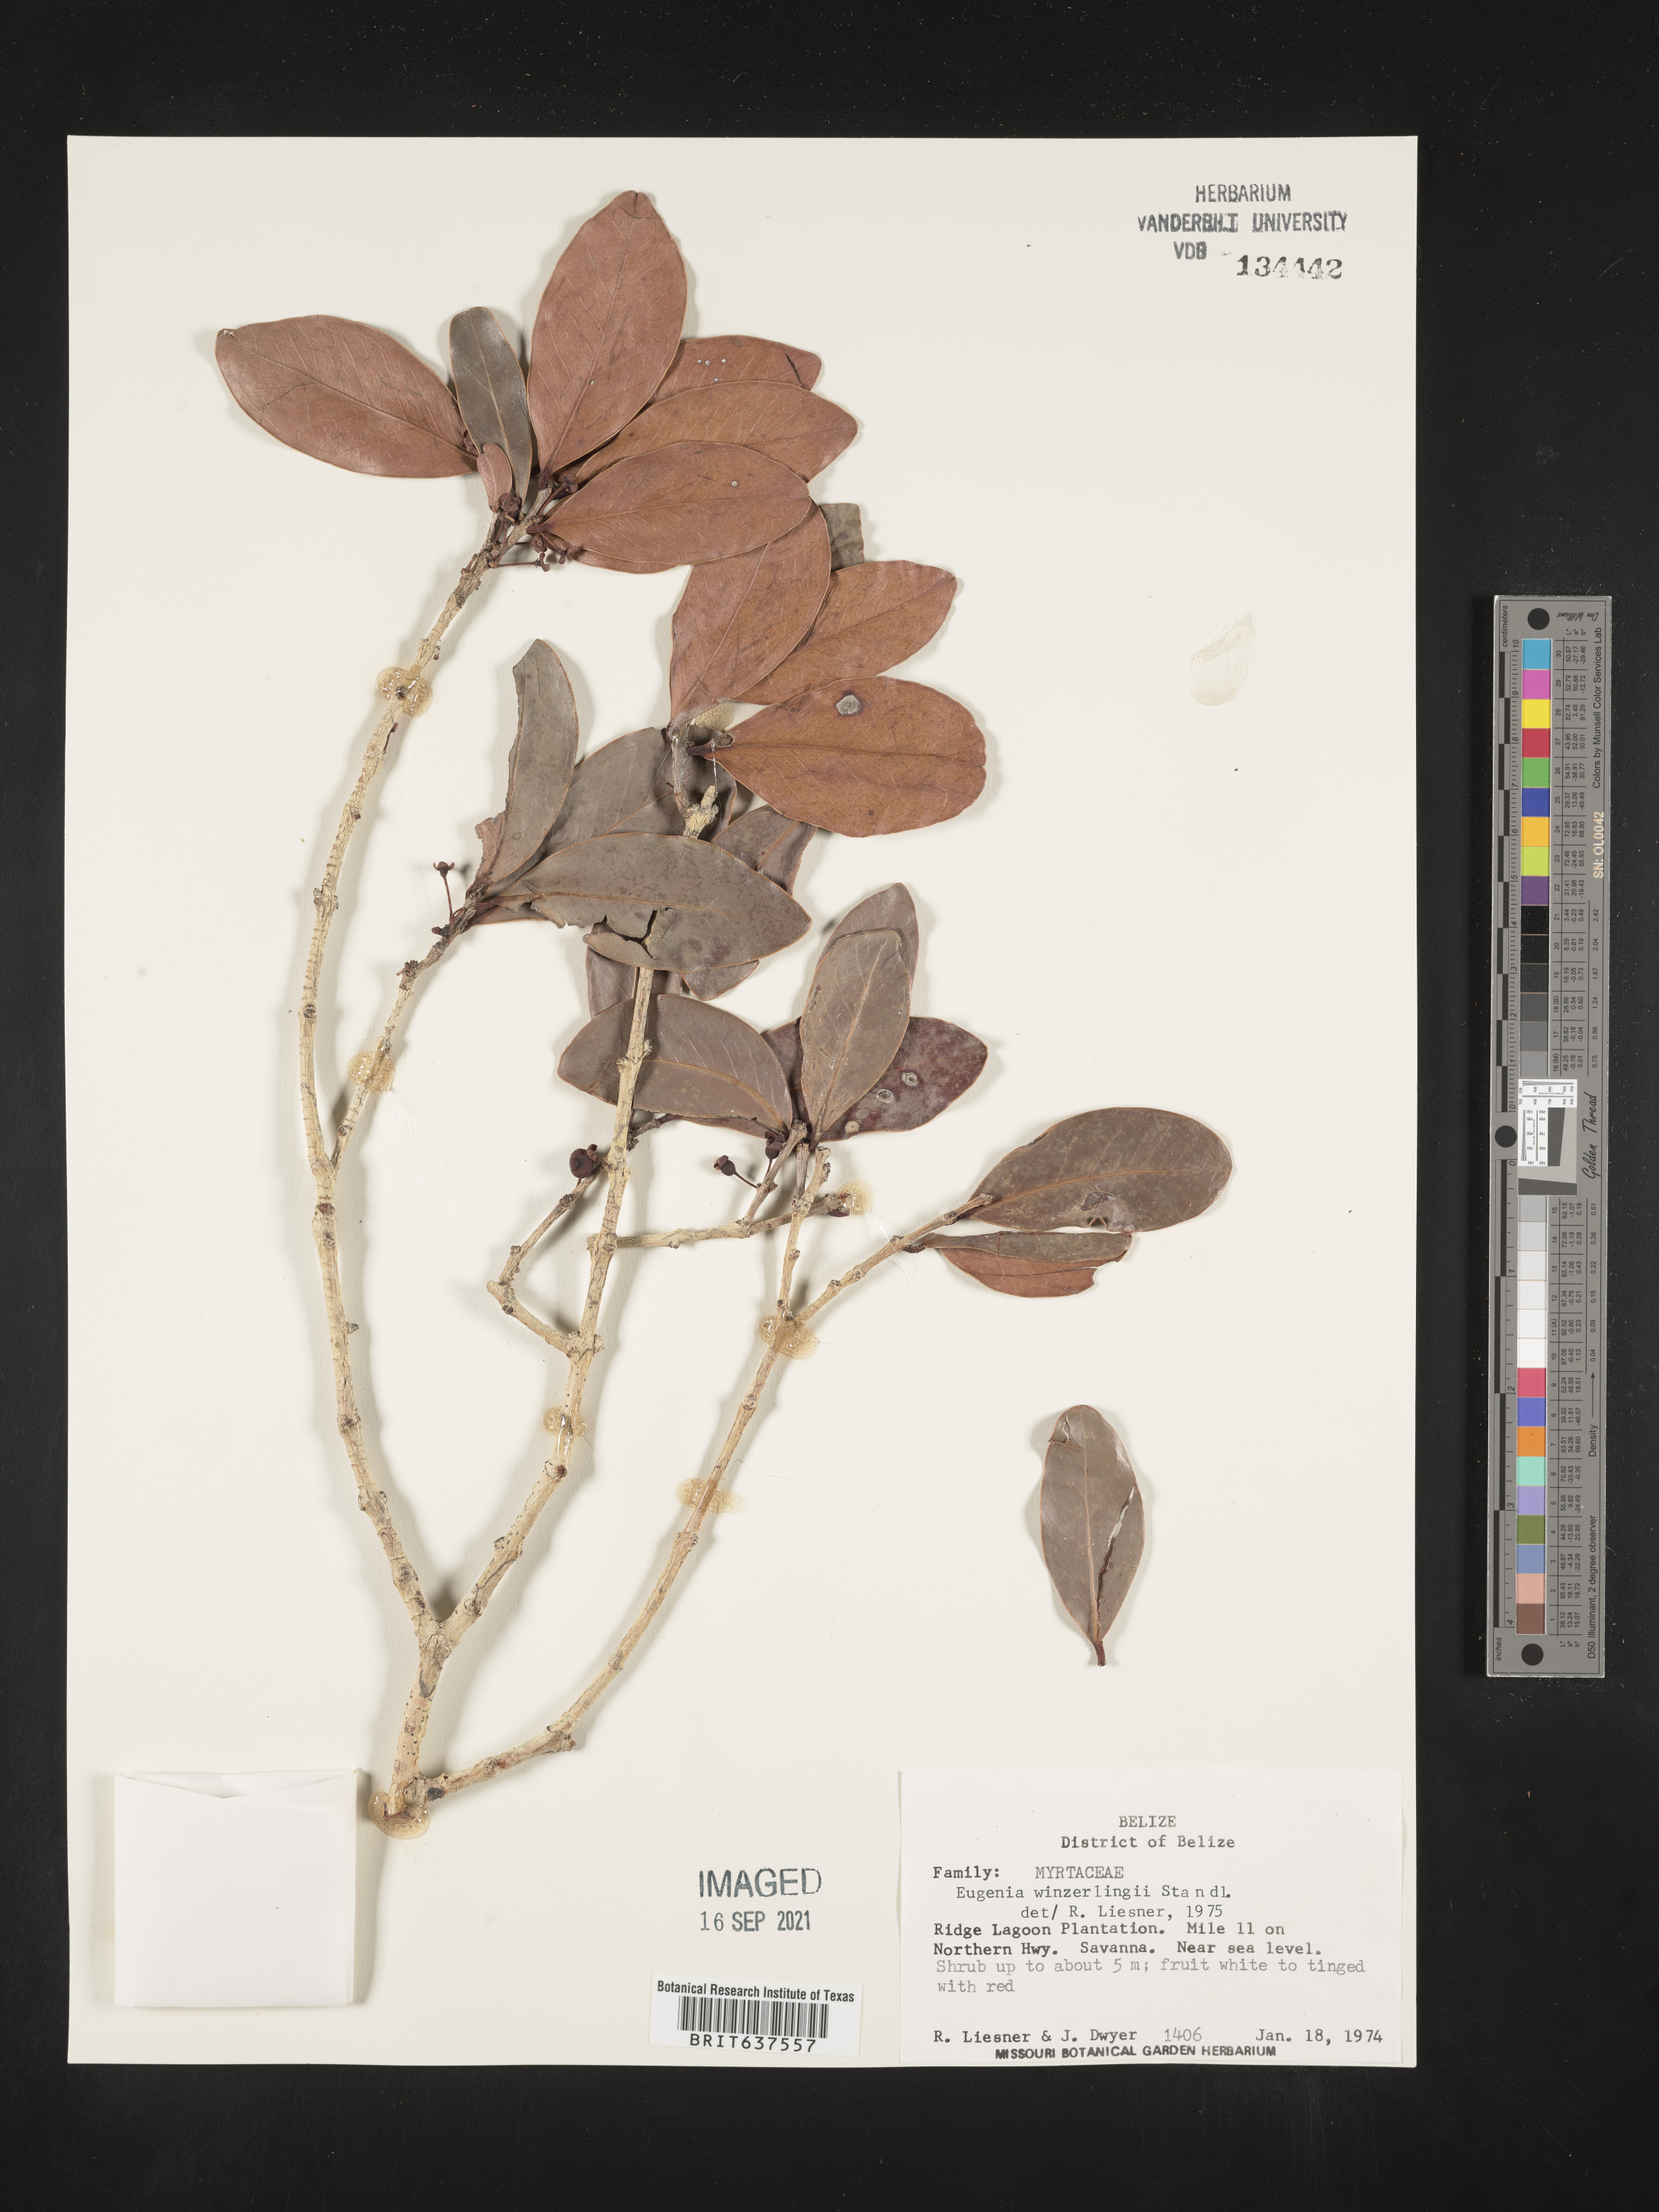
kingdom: Plantae
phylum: Tracheophyta
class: Magnoliopsida
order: Myrtales
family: Myrtaceae
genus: Eugenia
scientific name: Eugenia
